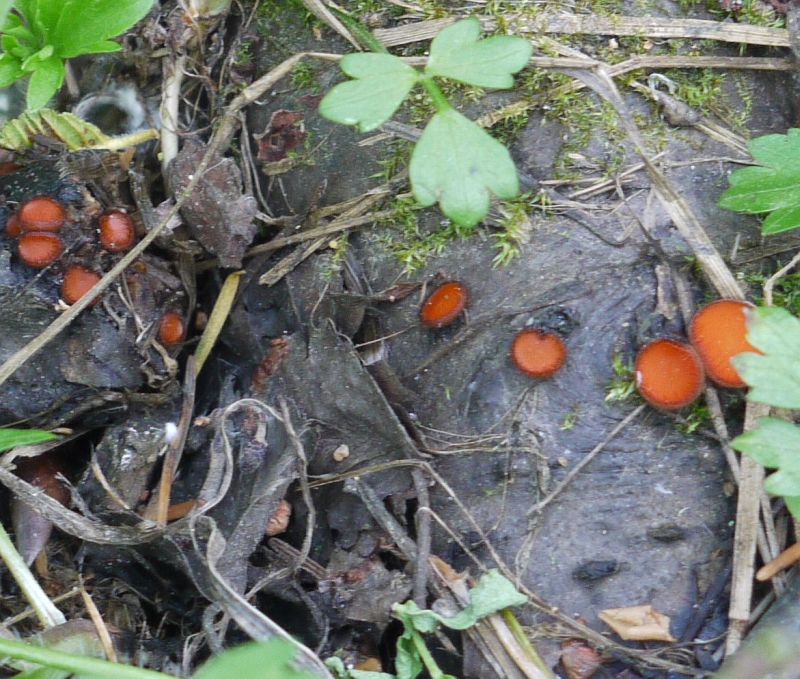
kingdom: Fungi
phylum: Ascomycota
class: Pezizomycetes
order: Pezizales
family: Pyronemataceae
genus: Scutellinia
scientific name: Scutellinia scutellata
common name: frynset skjoldbæger
